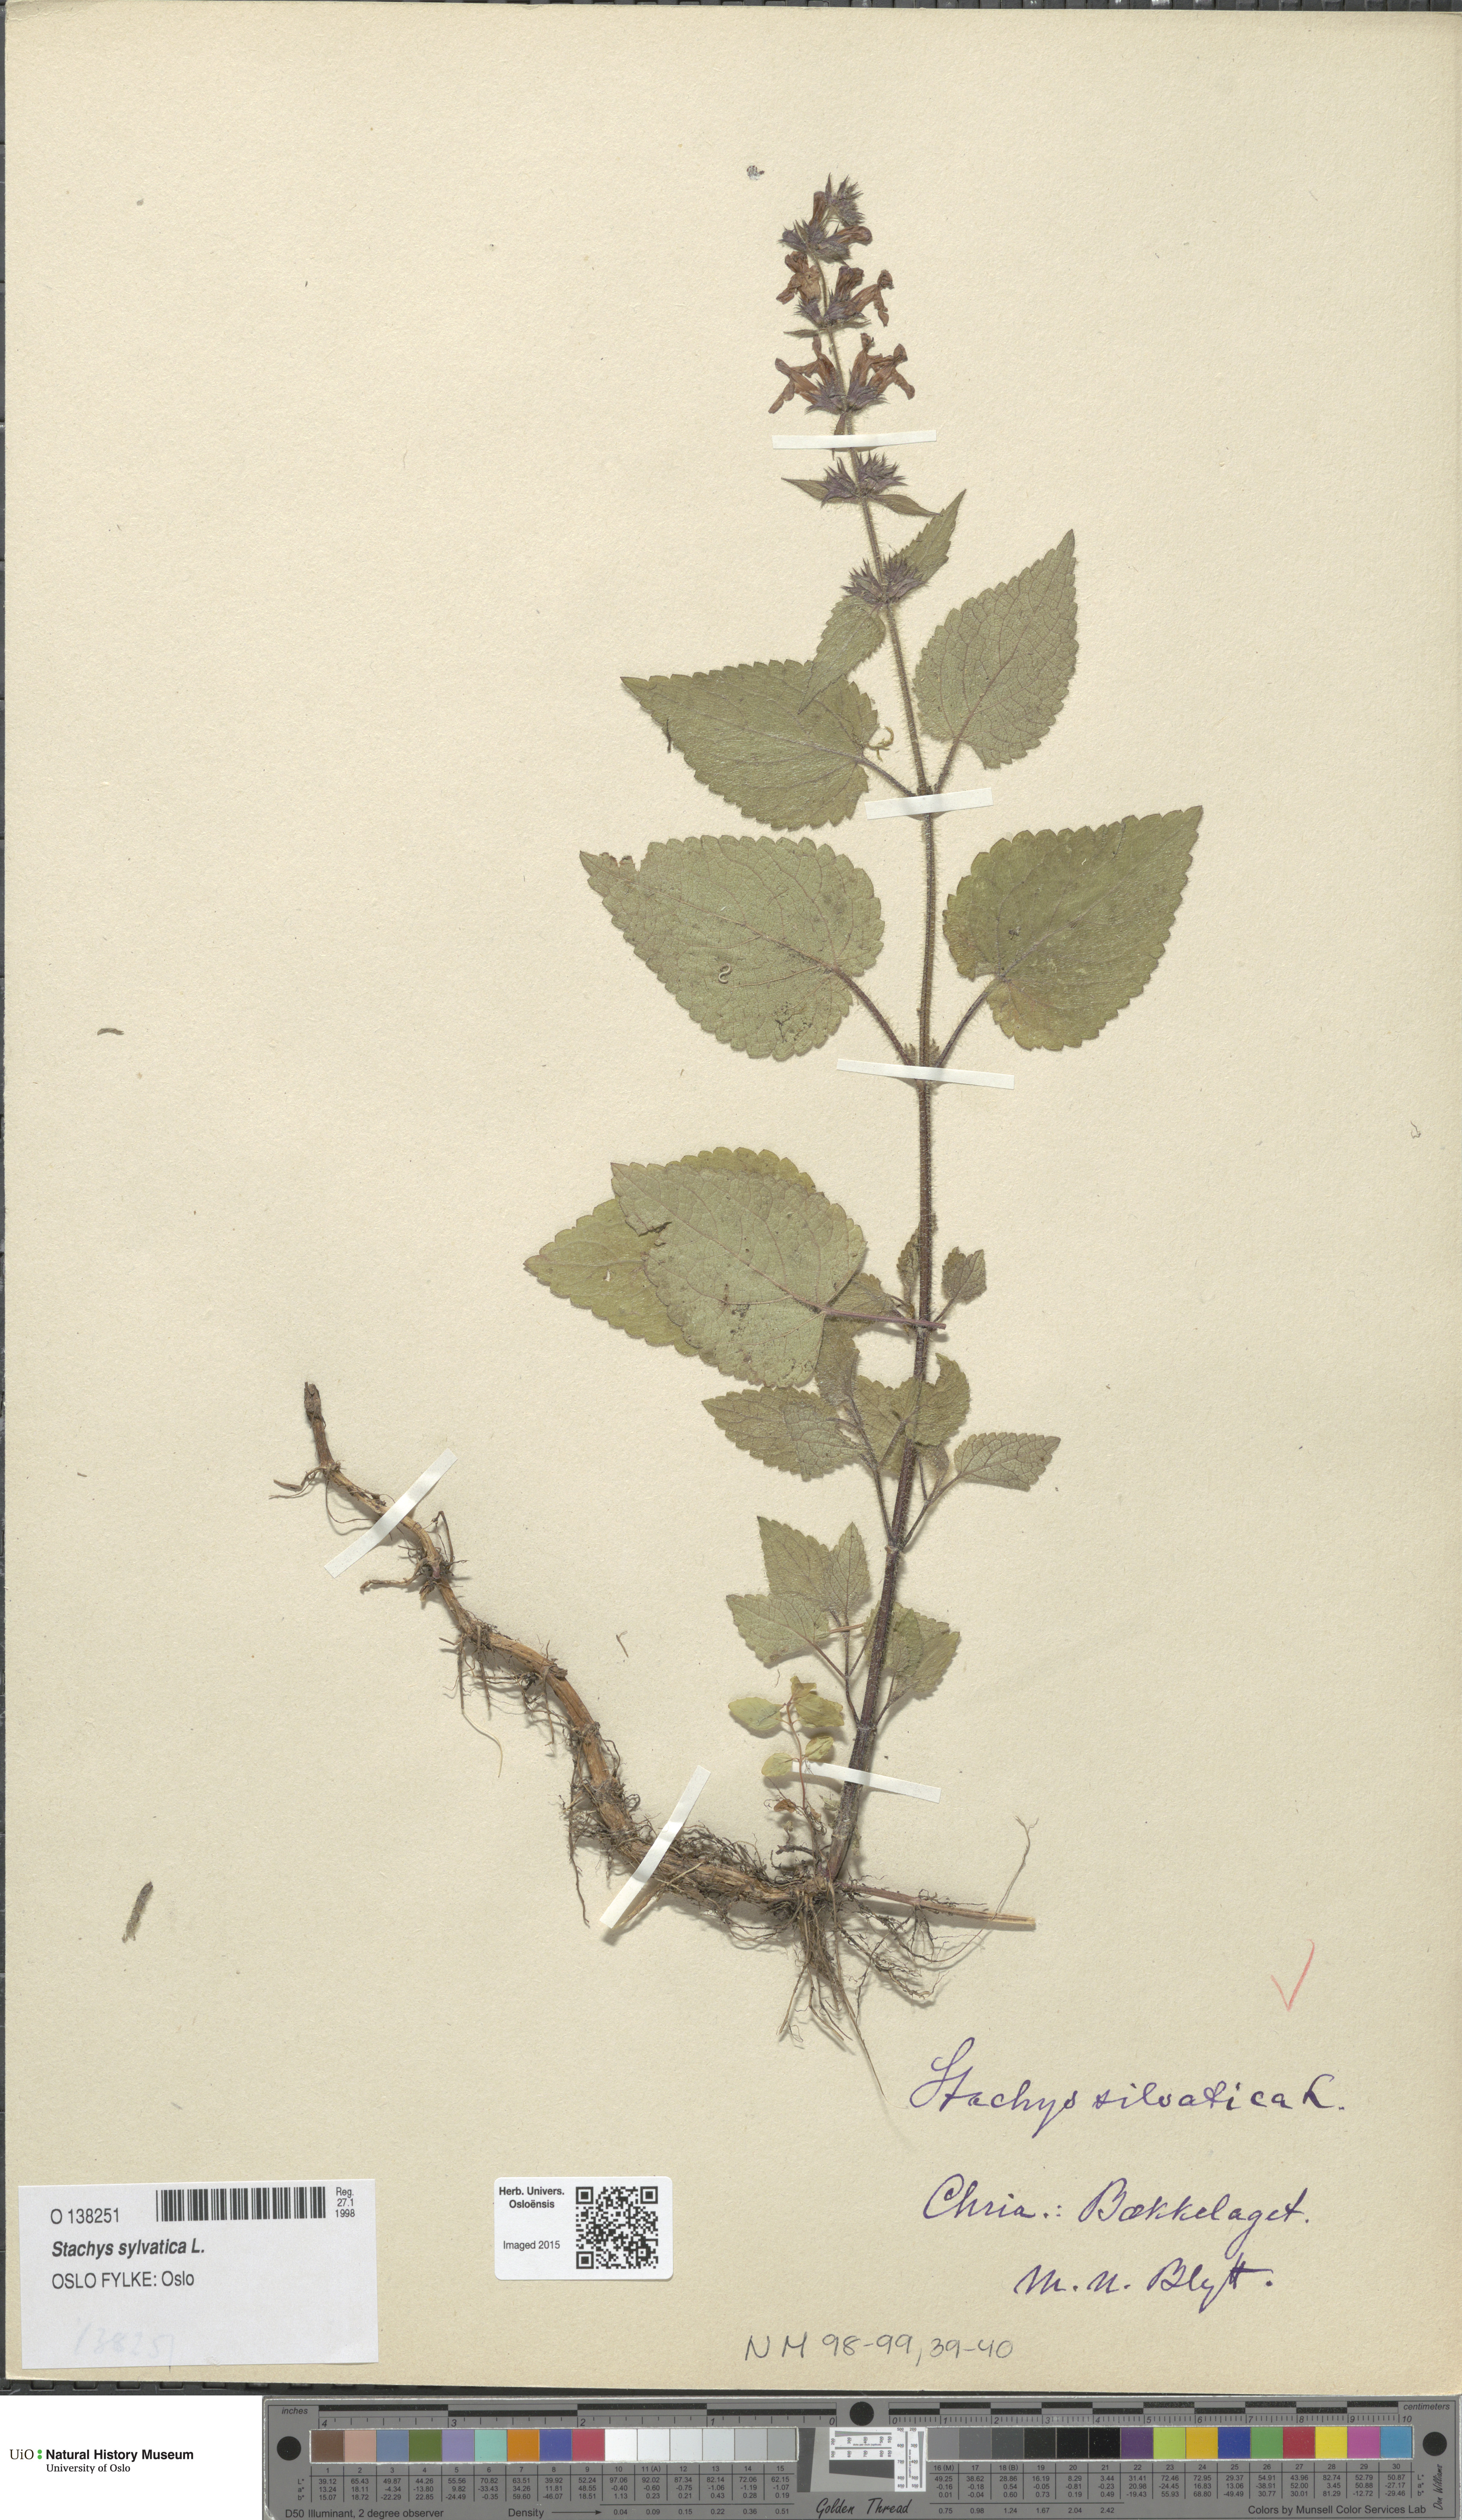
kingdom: Plantae
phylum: Tracheophyta
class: Magnoliopsida
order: Lamiales
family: Lamiaceae
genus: Stachys
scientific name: Stachys sylvatica
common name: Hedge woundwort
